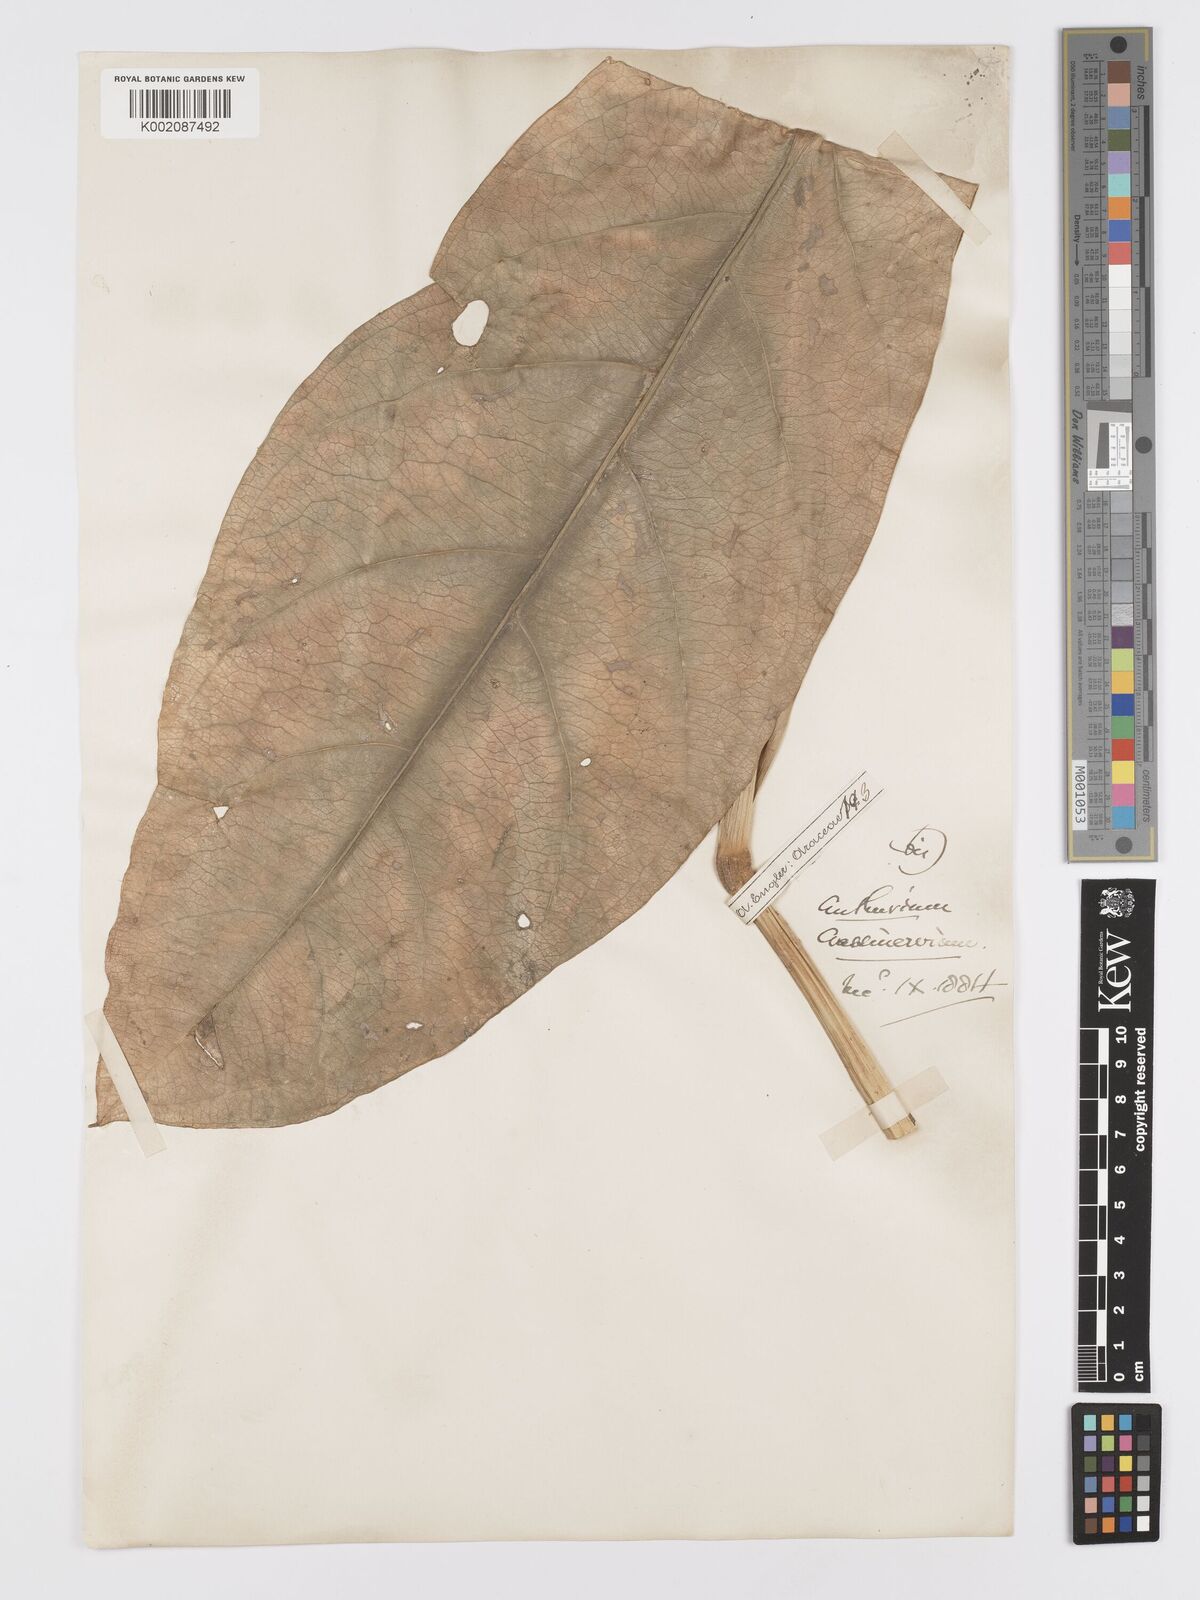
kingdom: Plantae
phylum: Tracheophyta
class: Liliopsida
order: Alismatales
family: Araceae
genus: Anthurium
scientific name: Anthurium crassinervium
